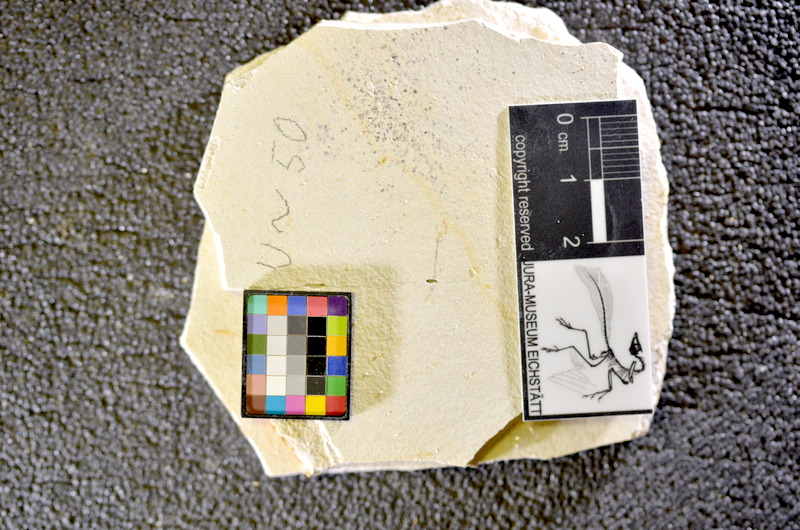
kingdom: Animalia
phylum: Chordata
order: Salmoniformes
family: Orthogonikleithridae
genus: Orthogonikleithrus
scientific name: Orthogonikleithrus hoelli
